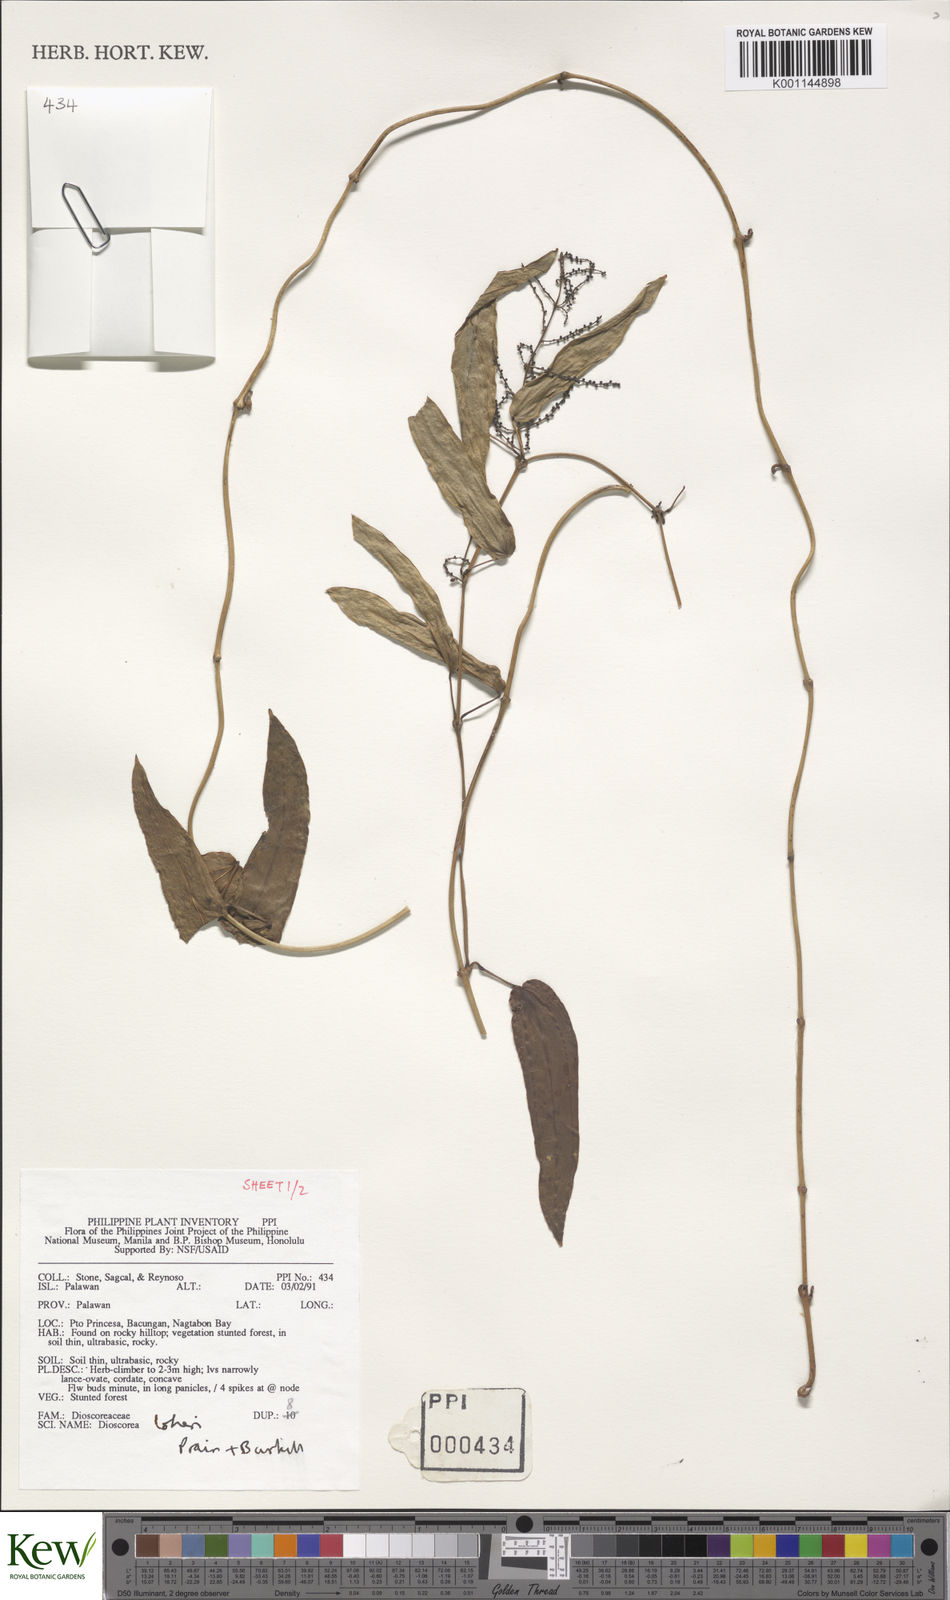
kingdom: Plantae
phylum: Tracheophyta
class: Liliopsida
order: Dioscoreales
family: Dioscoreaceae
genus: Dioscorea
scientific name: Dioscorea loheri
